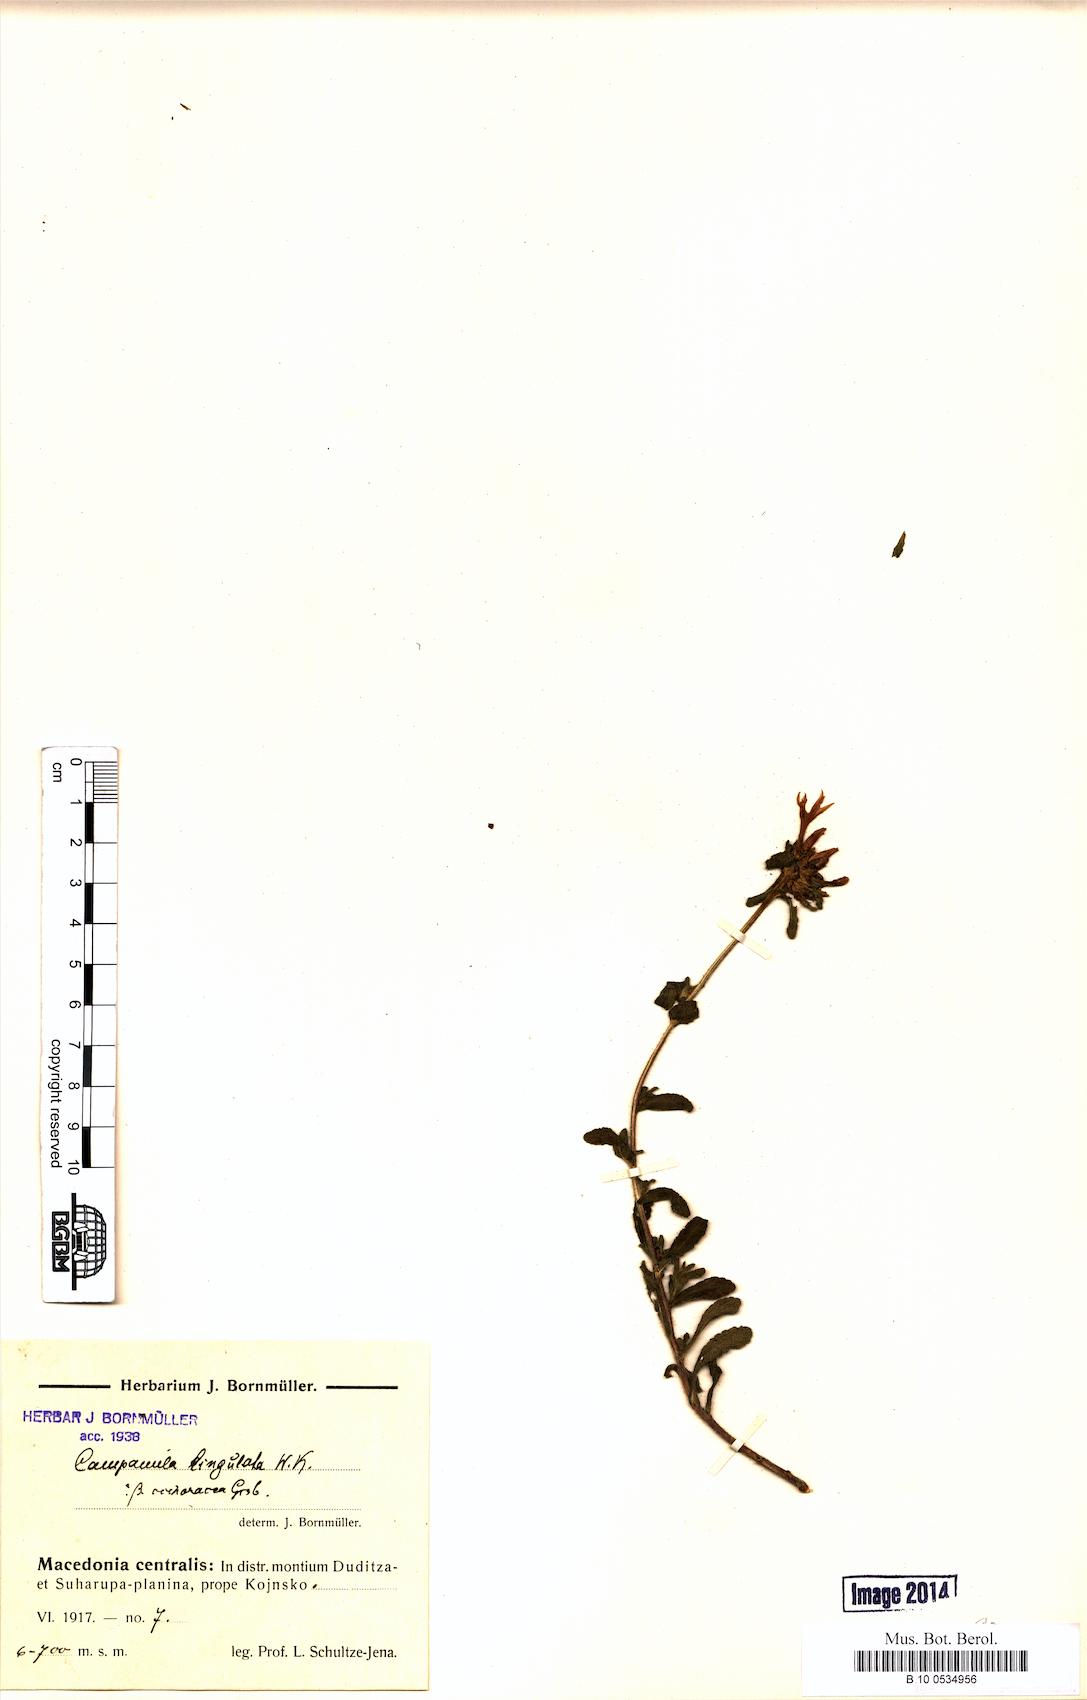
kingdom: Plantae
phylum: Tracheophyta
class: Magnoliopsida
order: Asterales
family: Campanulaceae
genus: Campanula
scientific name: Campanula lingulata
